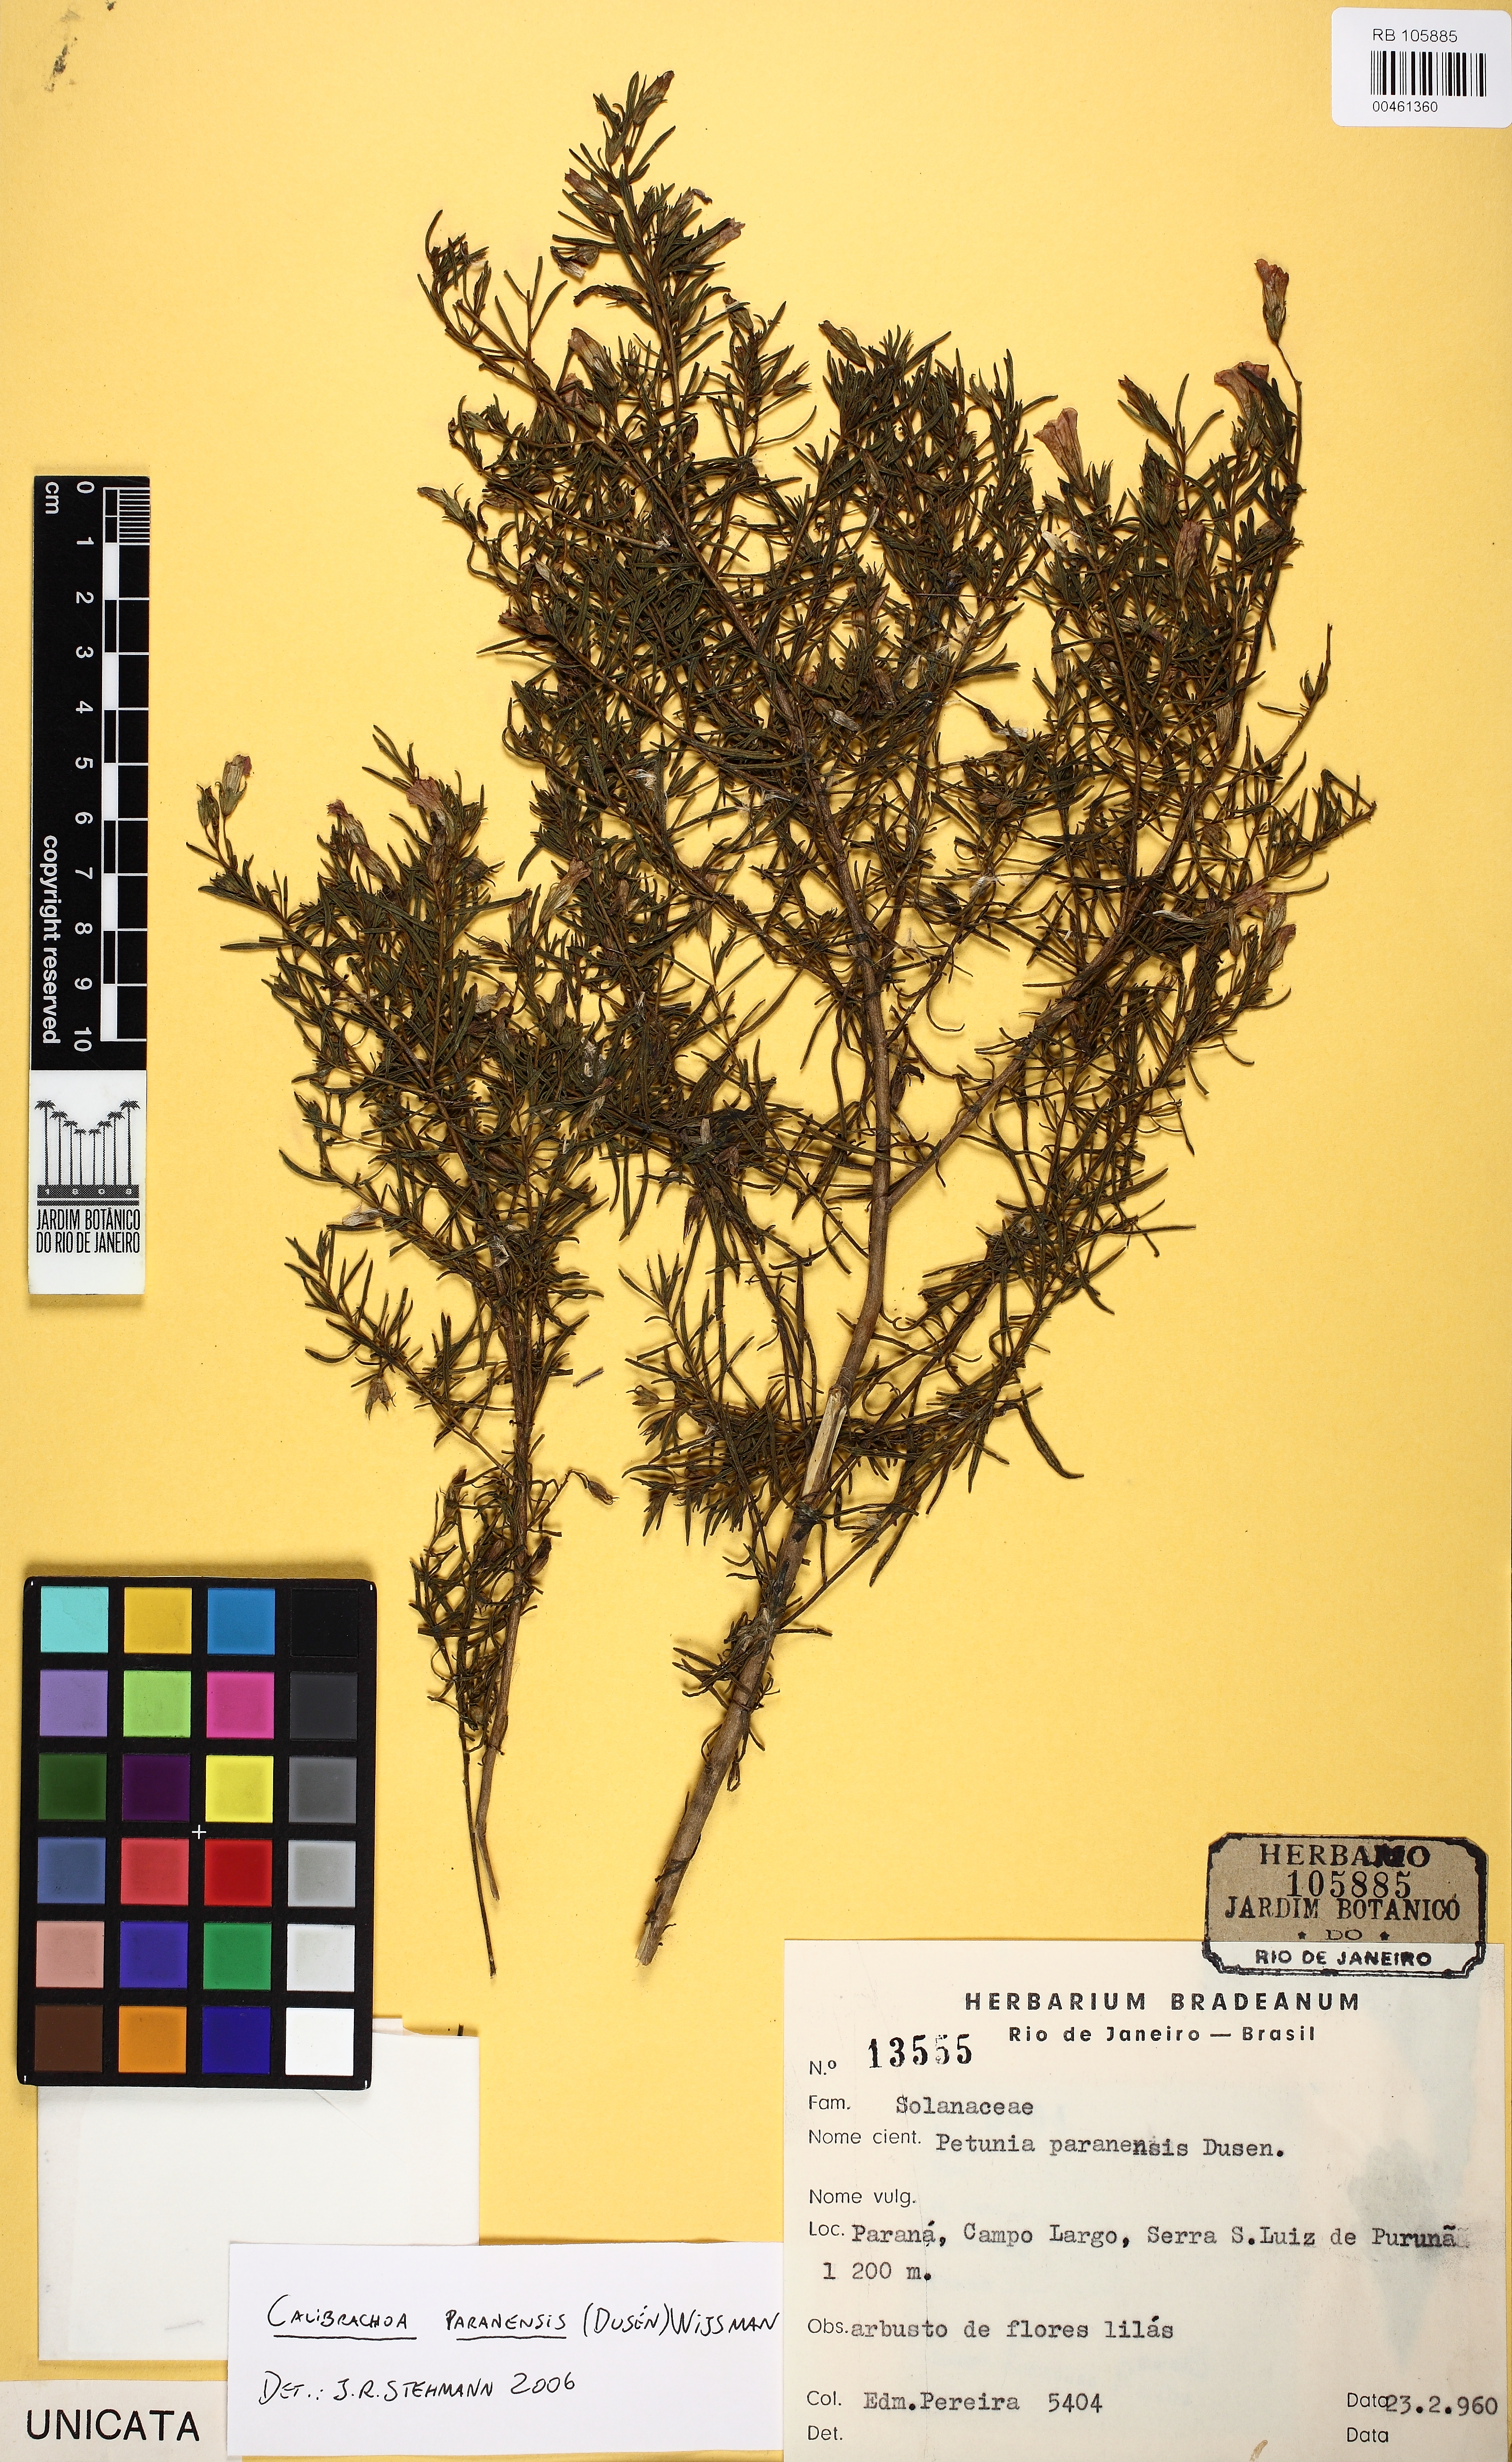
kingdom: Plantae
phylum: Tracheophyta
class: Magnoliopsida
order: Solanales
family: Solanaceae
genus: Calibrachoa
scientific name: Calibrachoa paranensis
